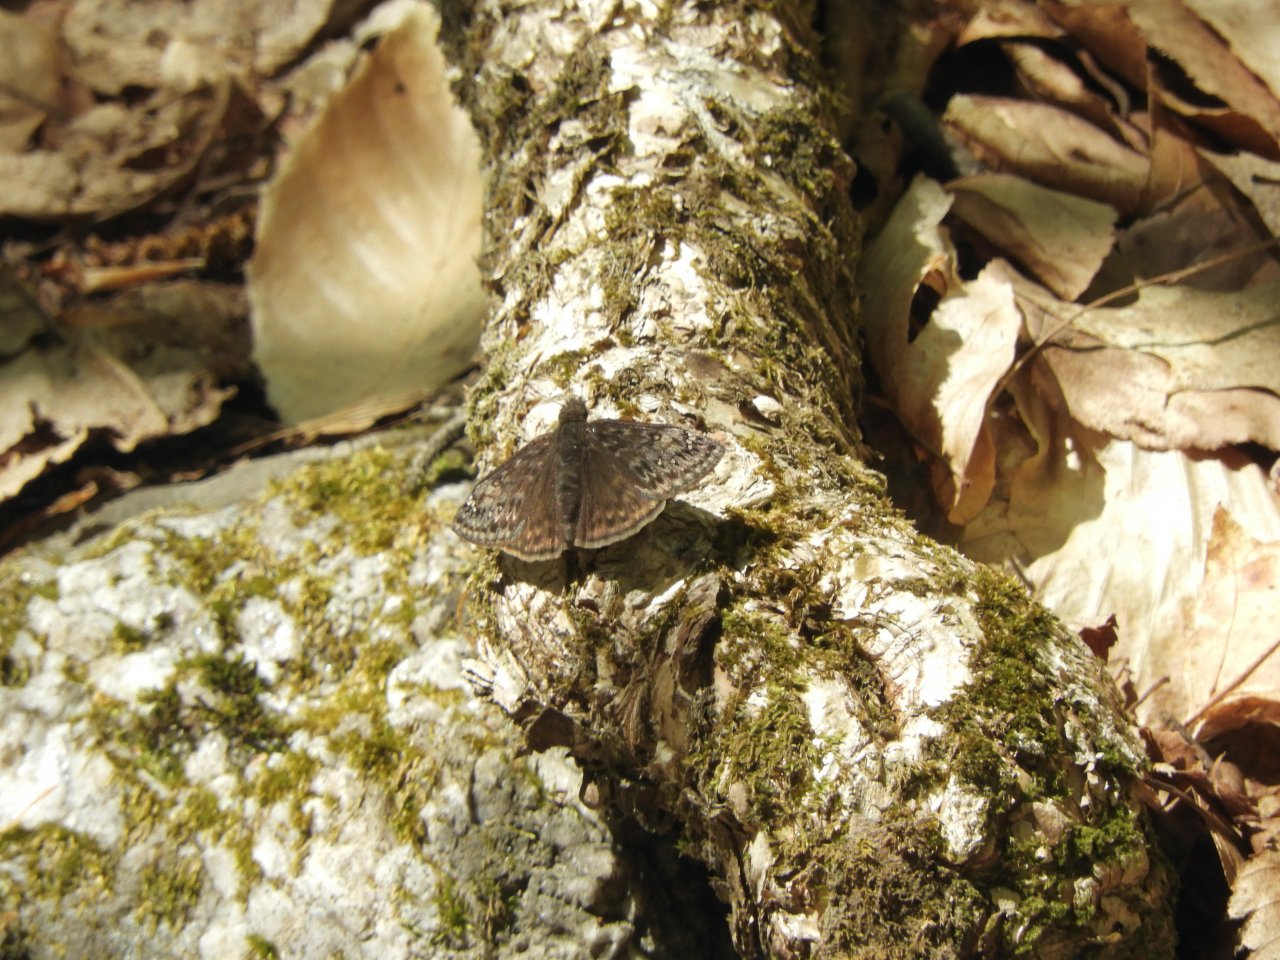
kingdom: Animalia
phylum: Arthropoda
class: Insecta
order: Lepidoptera
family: Hesperiidae
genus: Gesta
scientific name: Gesta
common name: Juvenal's Duskywing
